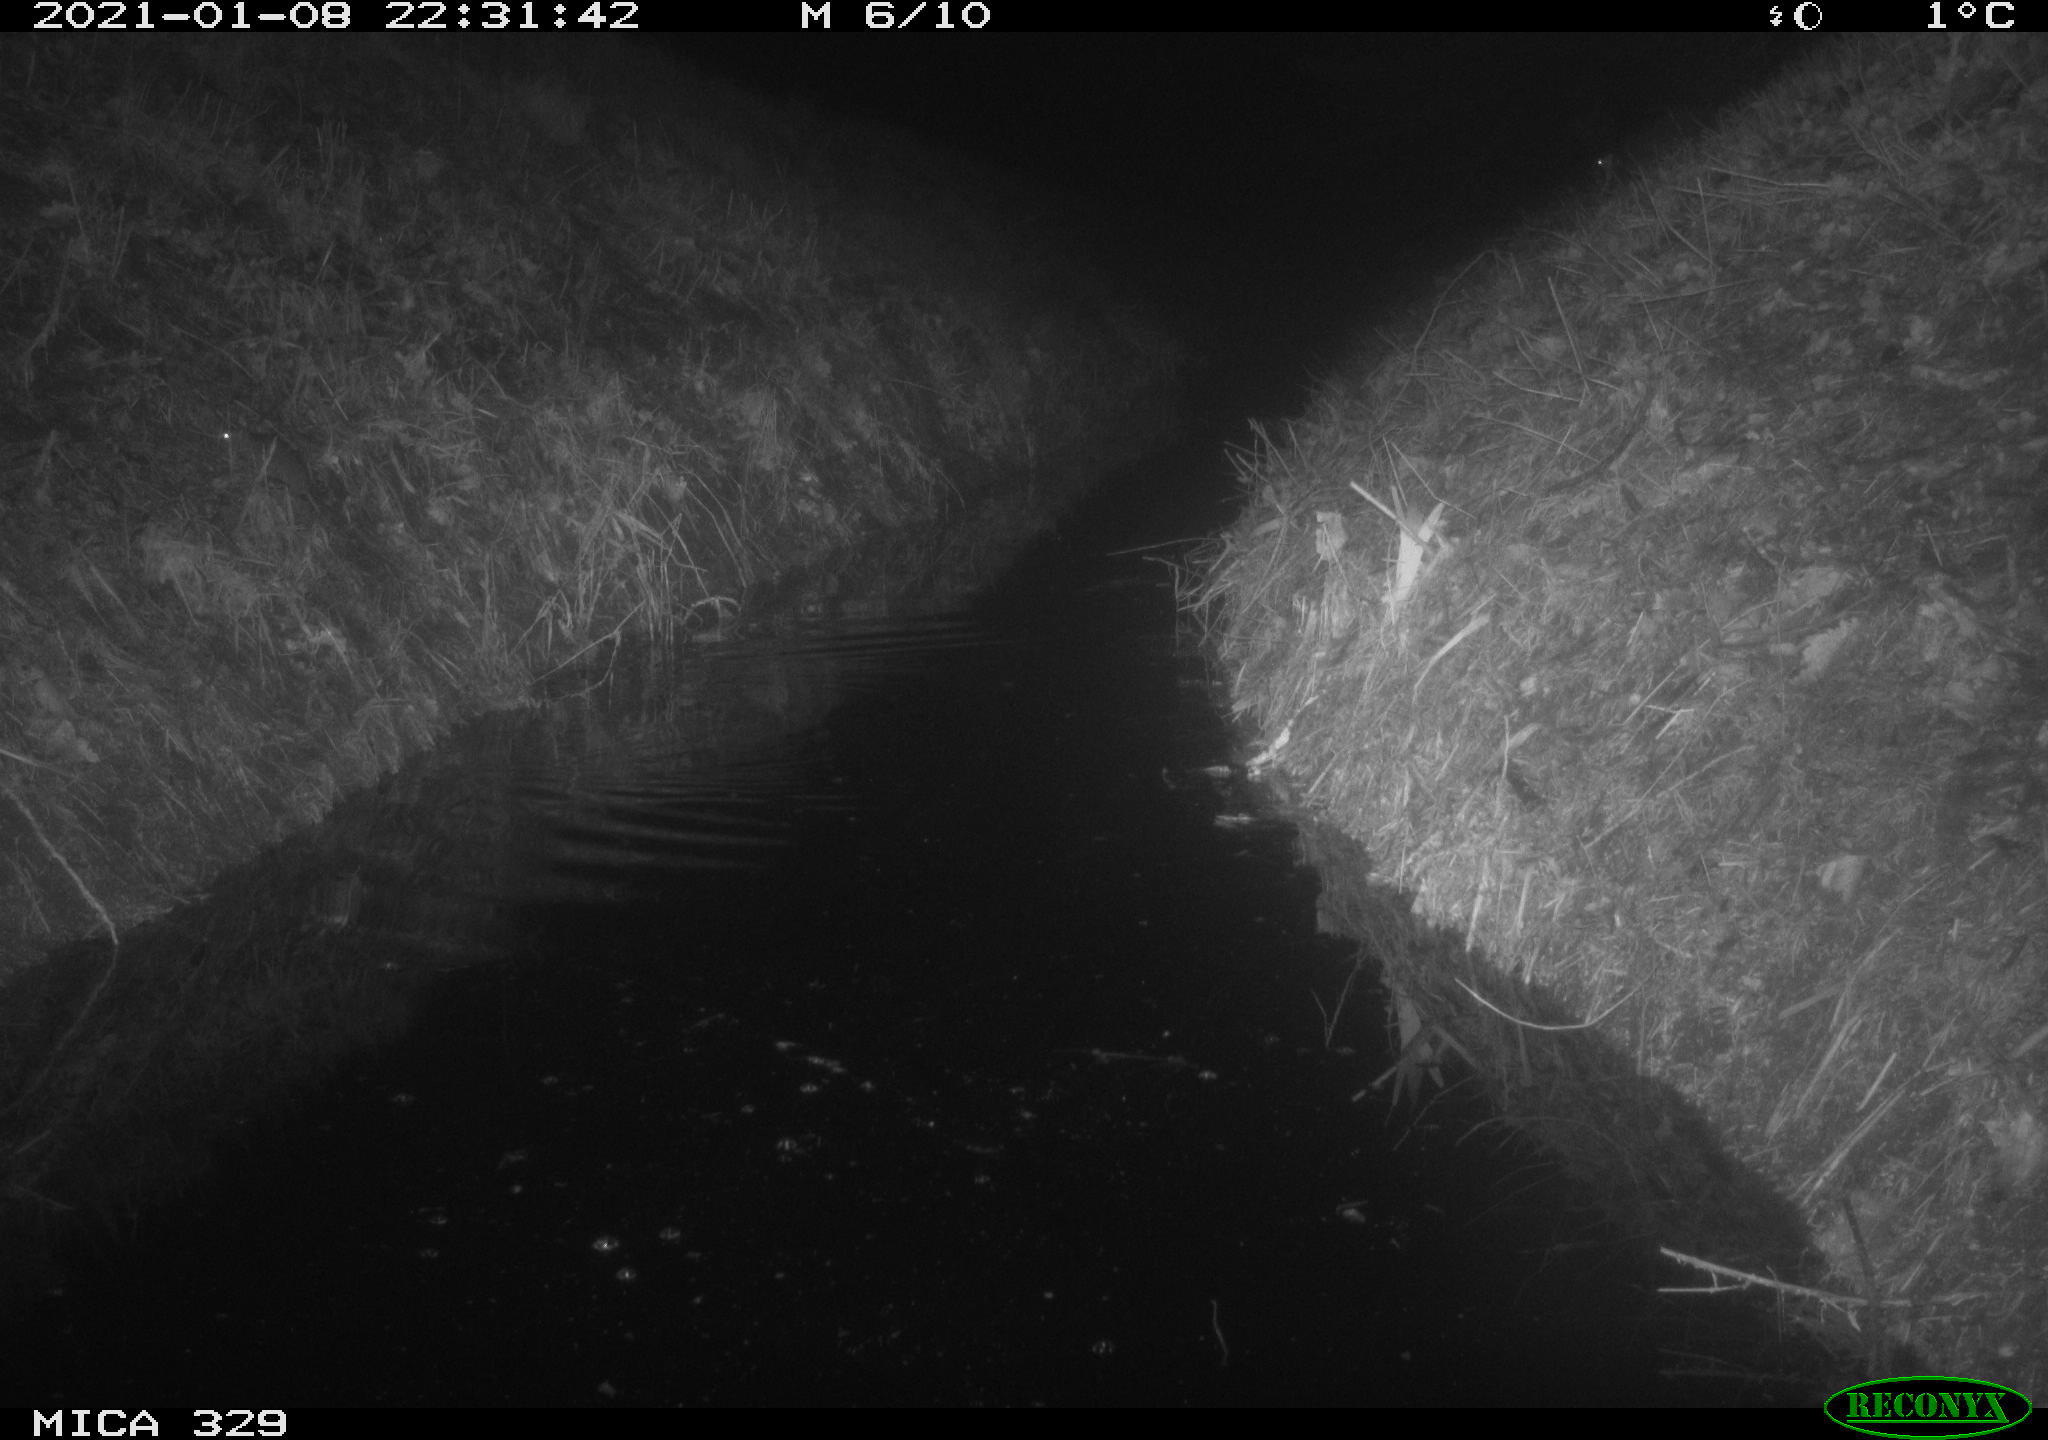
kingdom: Animalia
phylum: Chordata
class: Mammalia
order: Rodentia
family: Muridae
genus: Rattus
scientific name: Rattus norvegicus
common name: Brown rat
